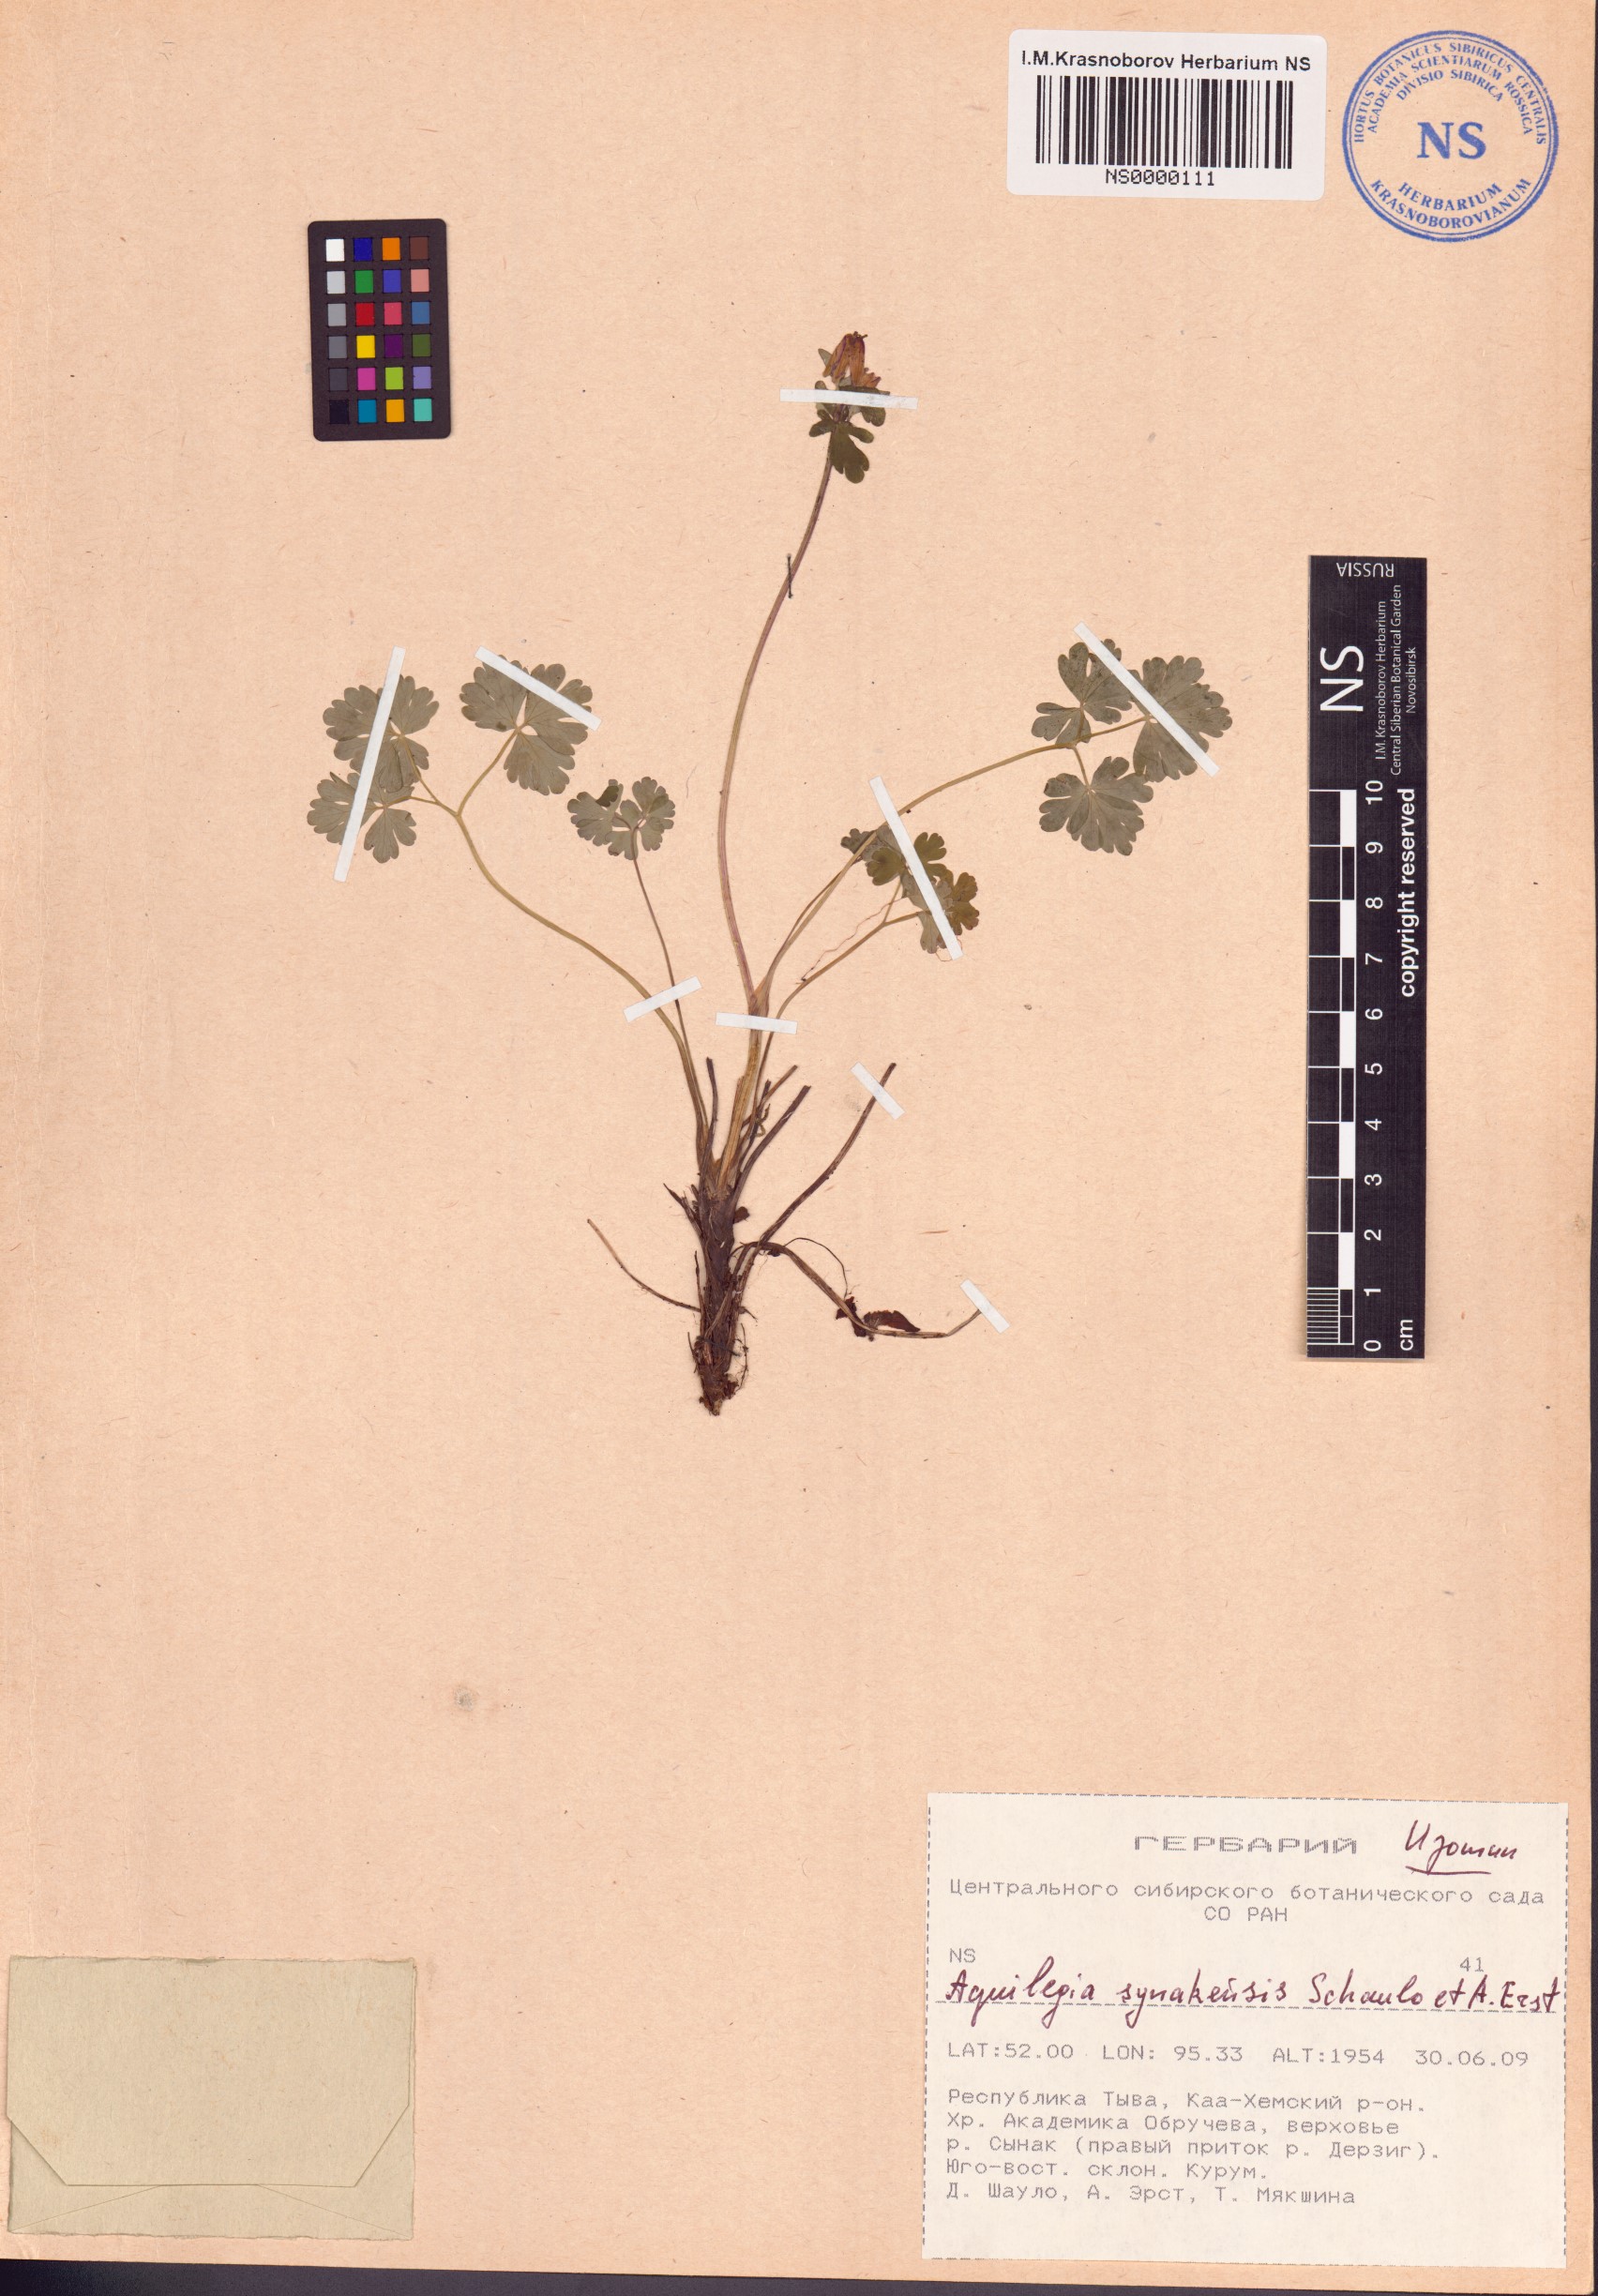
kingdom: Plantae
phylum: Tracheophyta
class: Magnoliopsida
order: Ranunculales
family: Ranunculaceae
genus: Aquilegia
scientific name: Aquilegia synakensis
